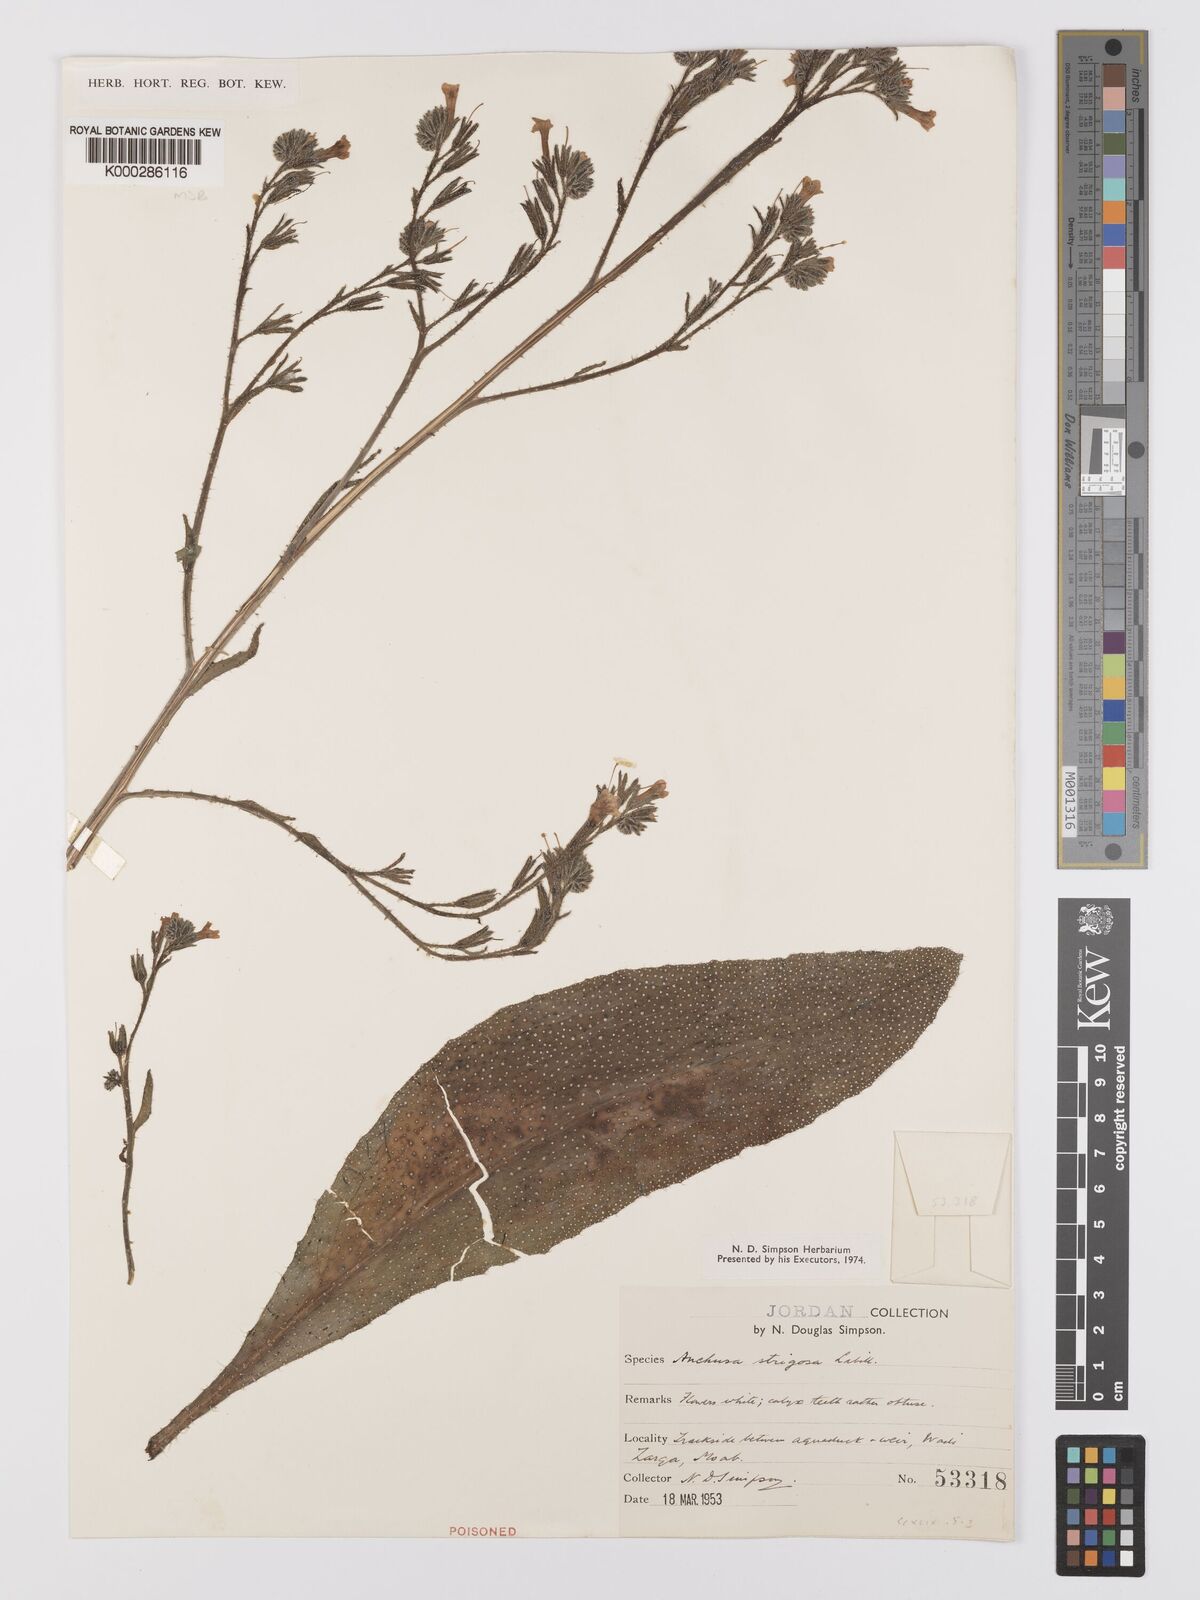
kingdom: Plantae
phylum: Tracheophyta
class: Magnoliopsida
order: Boraginales
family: Boraginaceae
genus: Anchusa
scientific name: Anchusa strigosa
